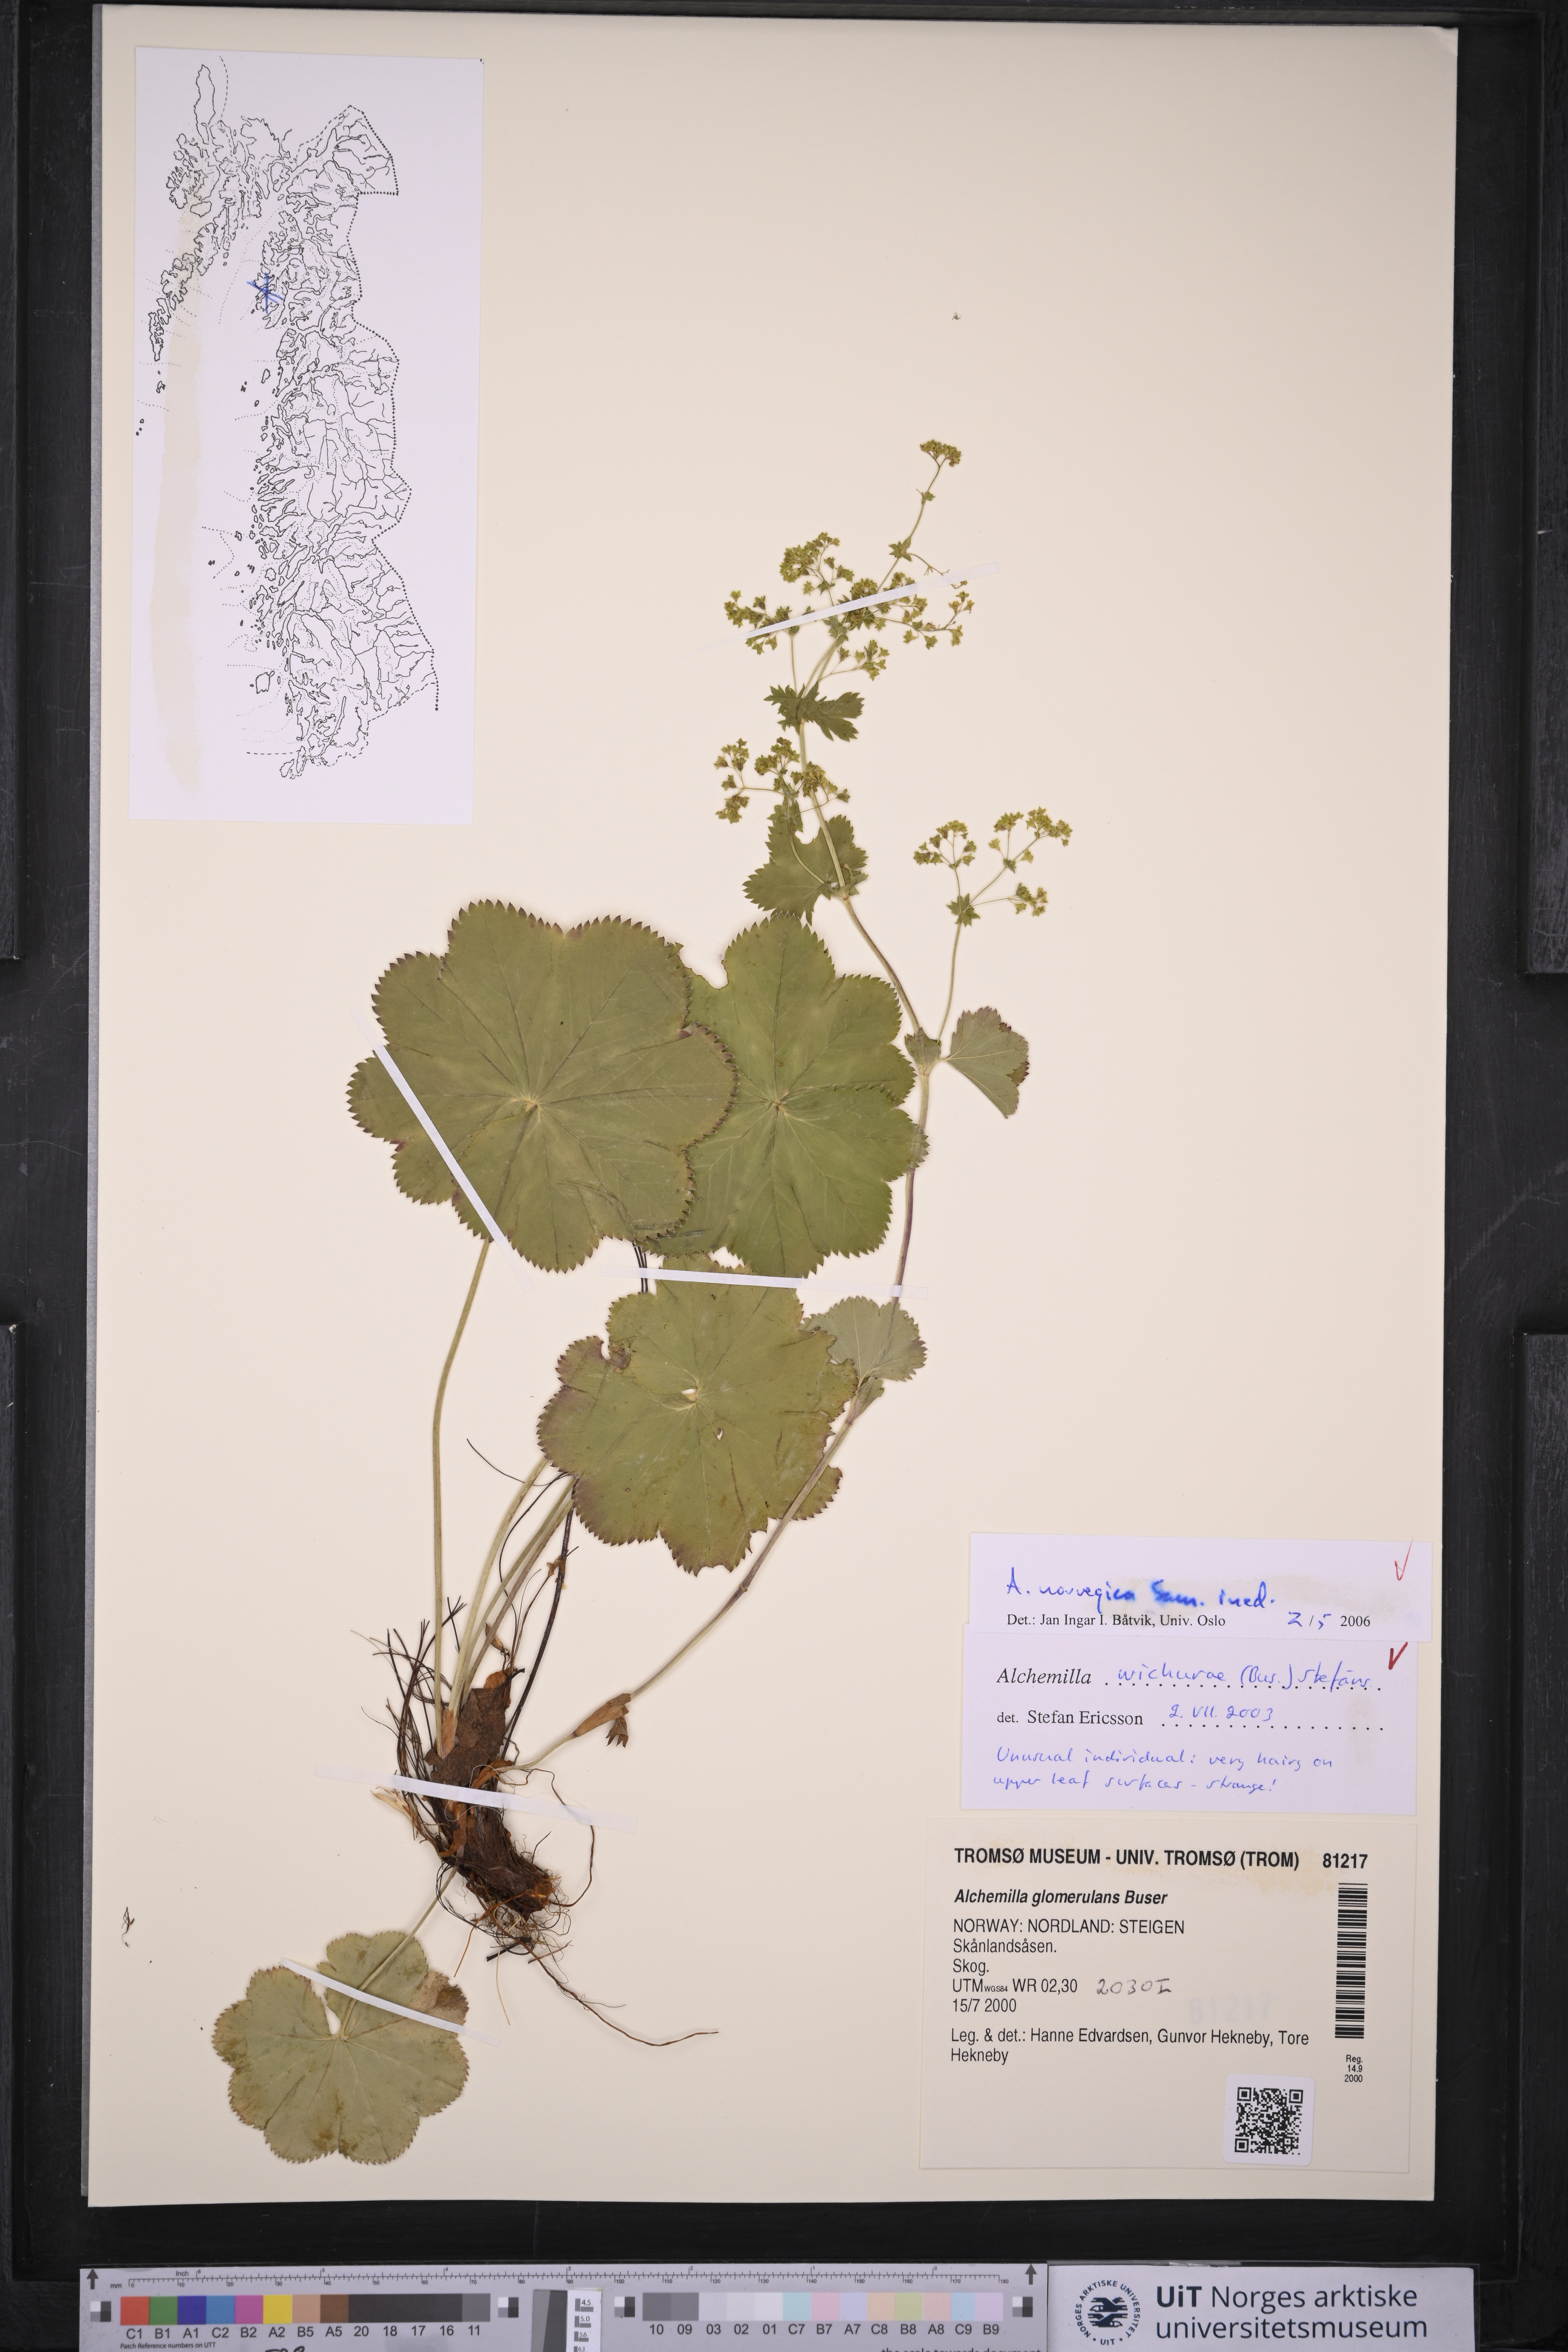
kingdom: Plantae
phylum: Tracheophyta
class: Magnoliopsida
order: Rosales
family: Rosaceae
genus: Alchemilla
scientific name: Alchemilla norvegica
